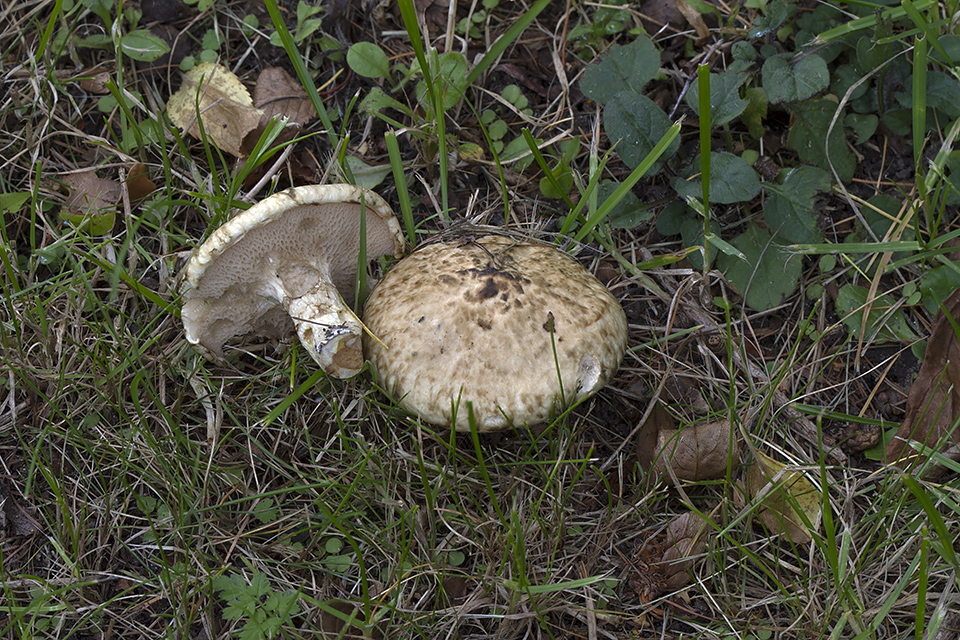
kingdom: Fungi
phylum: Basidiomycota
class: Agaricomycetes
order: Boletales
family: Suillaceae
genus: Suillus
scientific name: Suillus viscidus
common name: olivengrå slimrørhat
